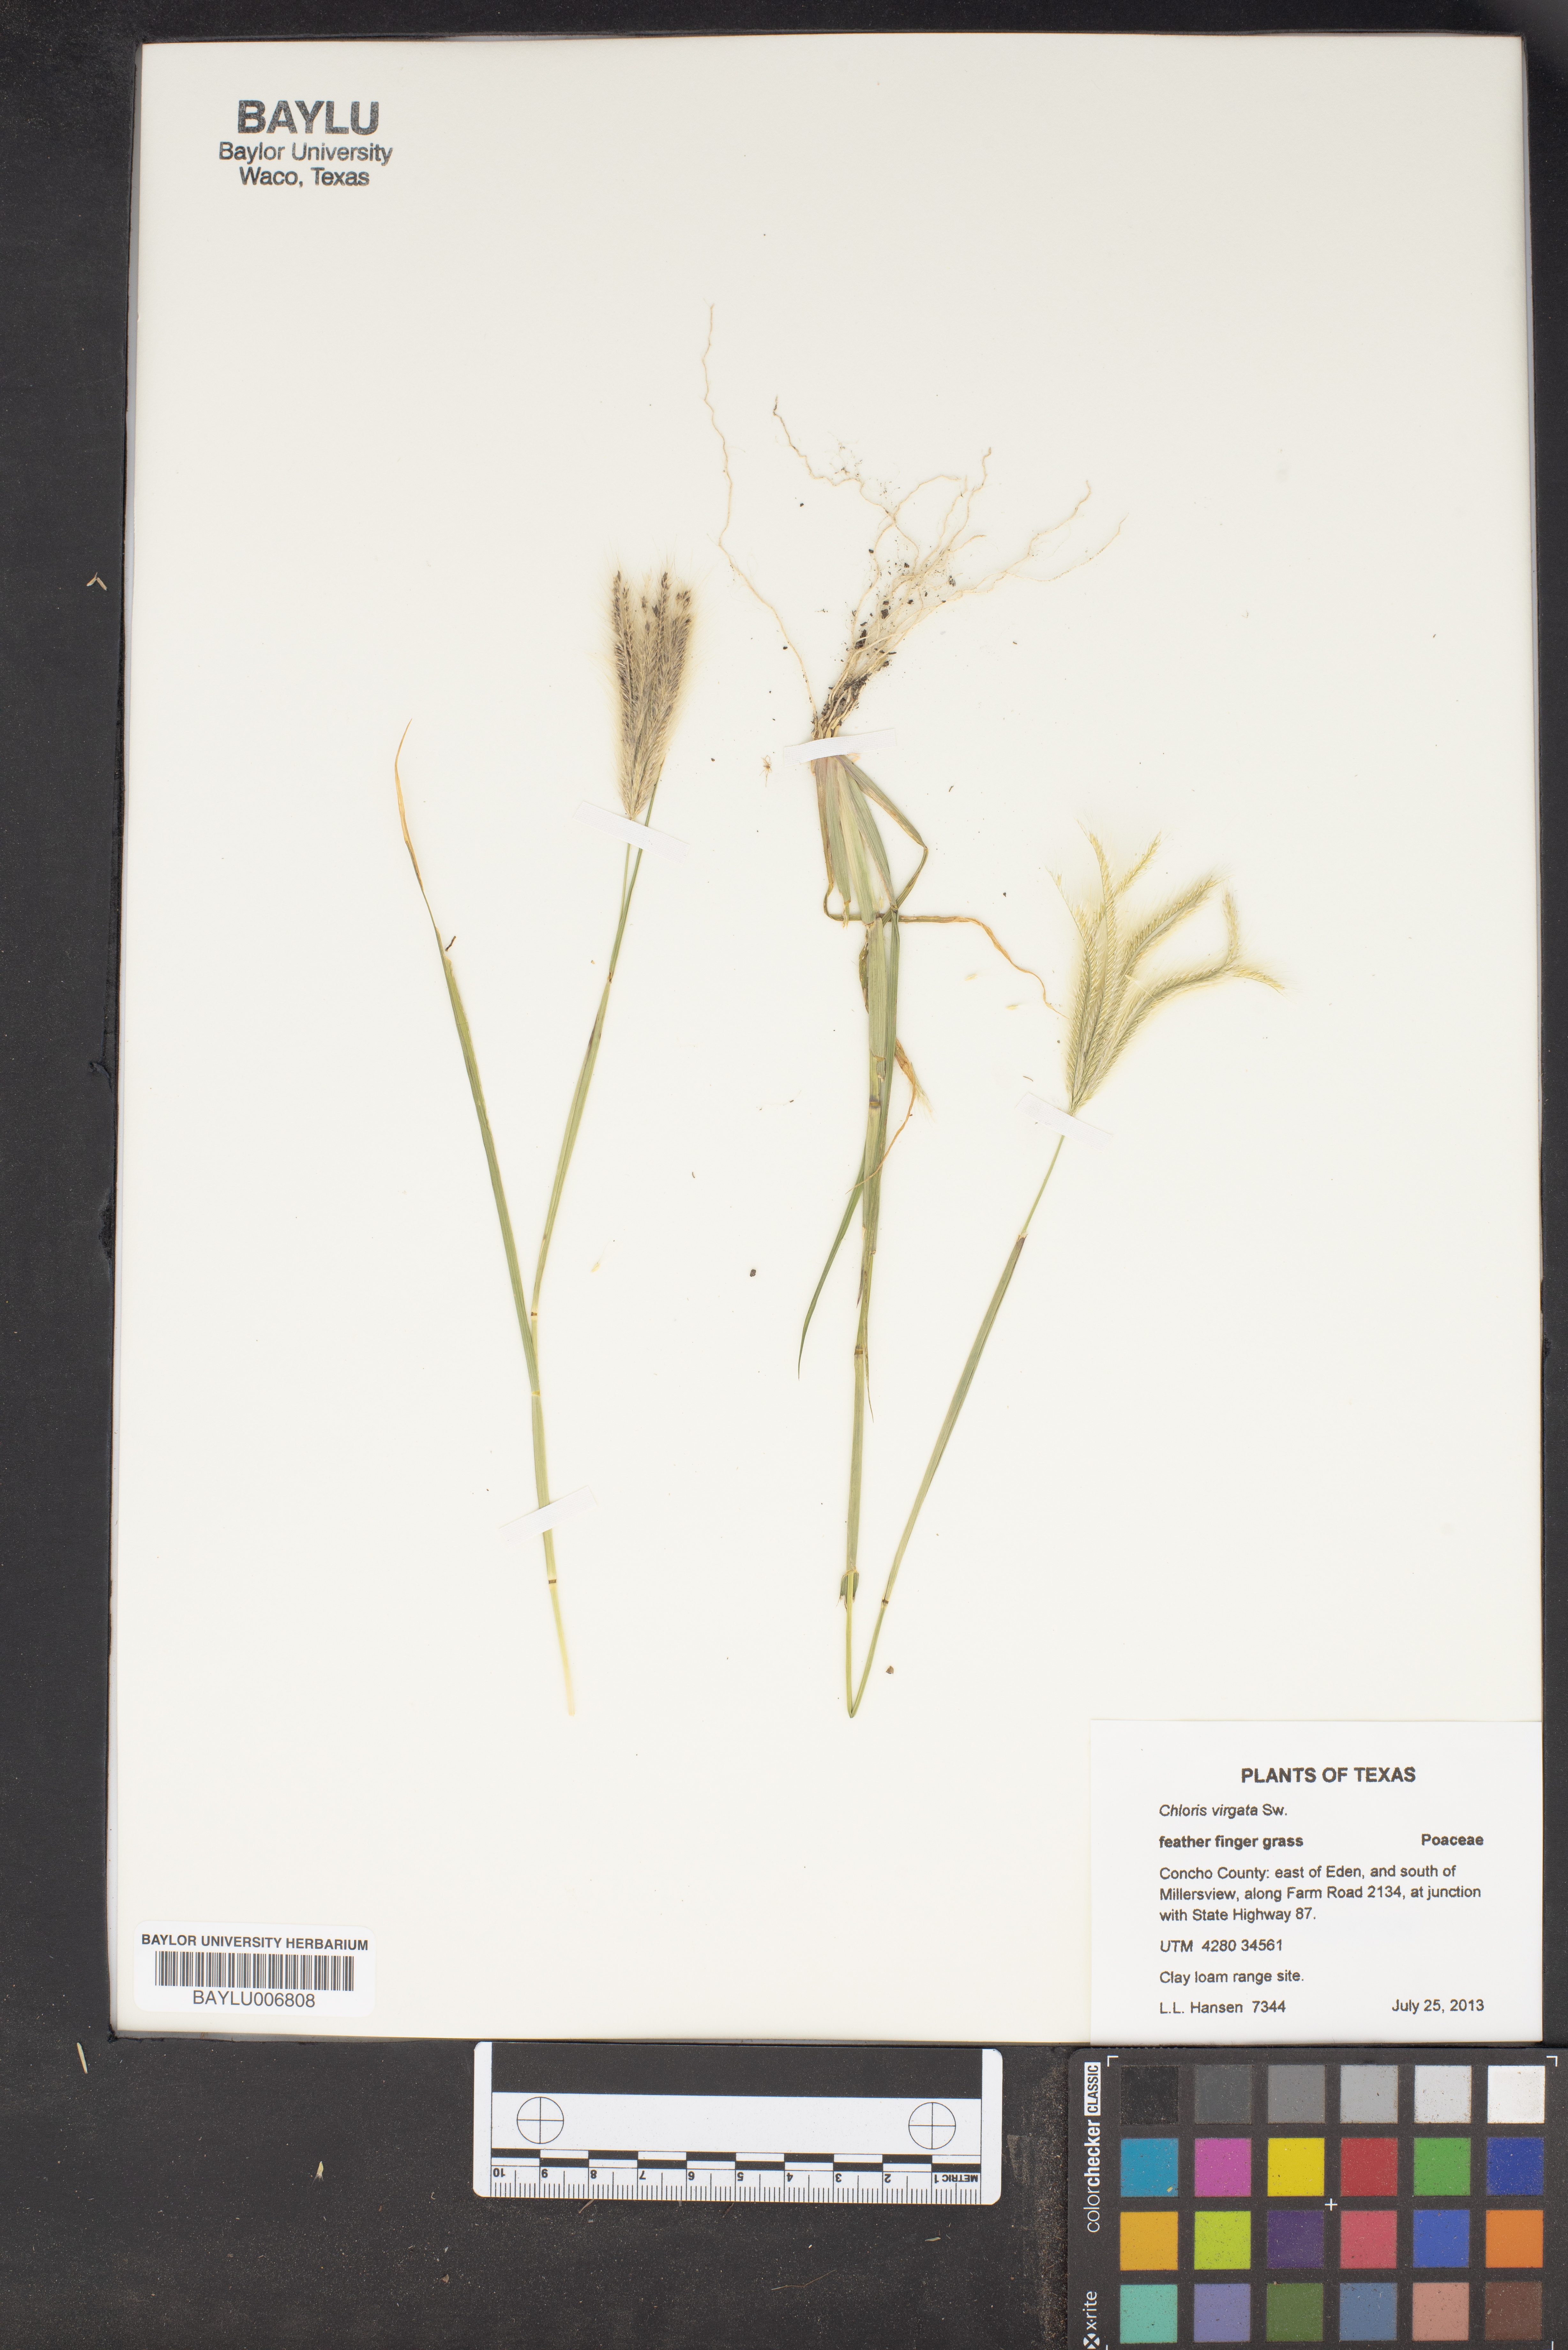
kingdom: Plantae
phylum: Tracheophyta
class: Liliopsida
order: Poales
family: Poaceae
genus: Chloris
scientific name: Chloris virgata
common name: Feathery rhodes-grass
